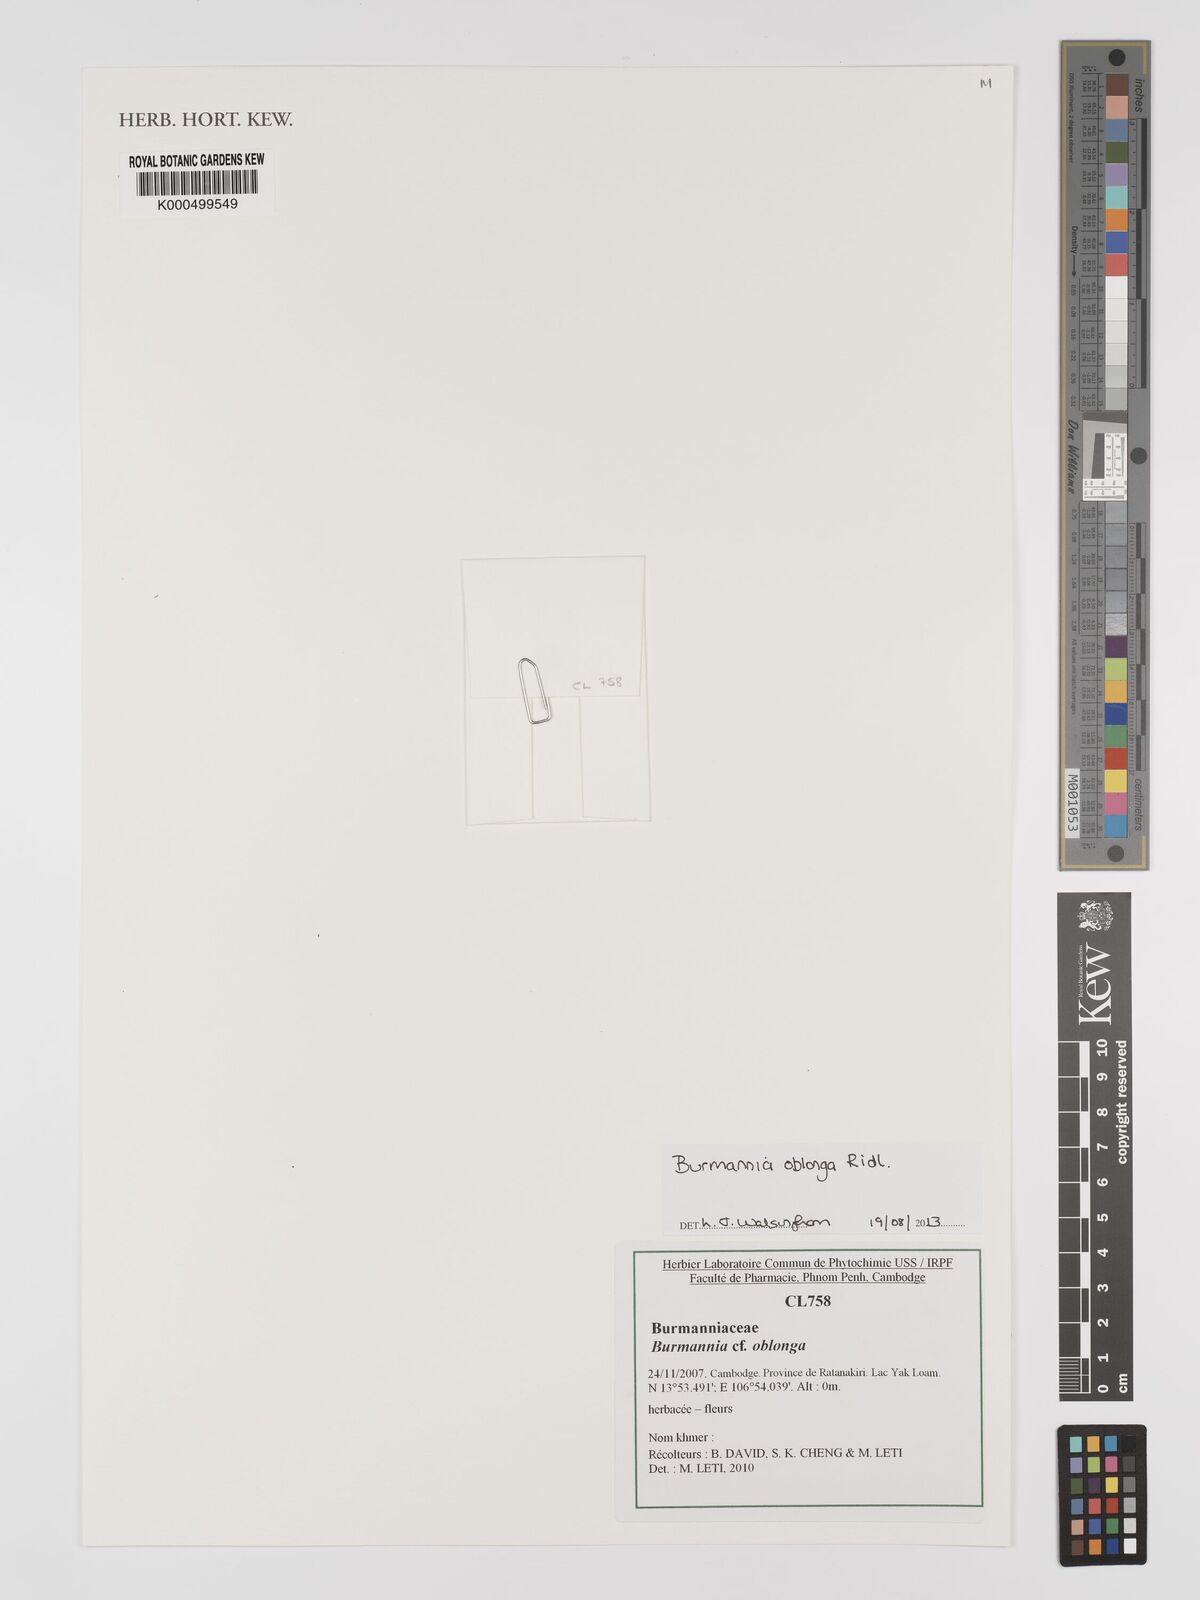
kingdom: Plantae
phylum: Tracheophyta
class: Liliopsida
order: Dioscoreales
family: Burmanniaceae
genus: Burmannia
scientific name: Burmannia oblonga
